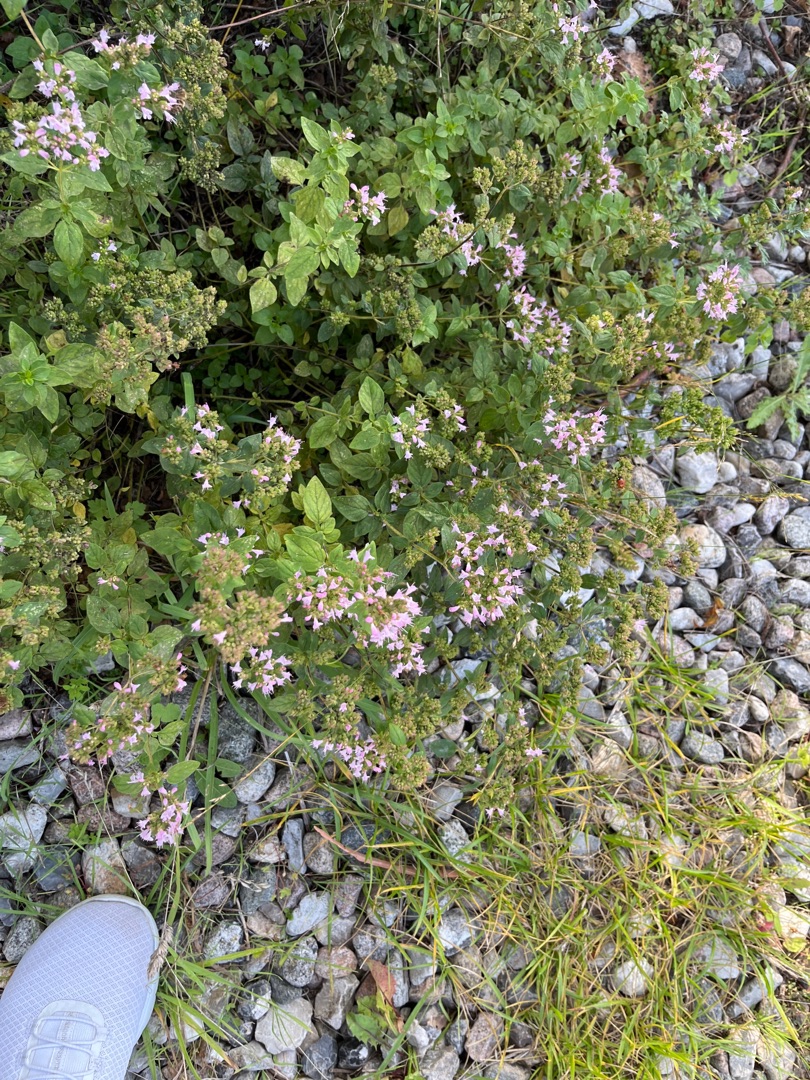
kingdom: Plantae
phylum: Tracheophyta
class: Magnoliopsida
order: Lamiales
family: Lamiaceae
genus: Origanum
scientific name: Origanum vulgare
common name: Merian
